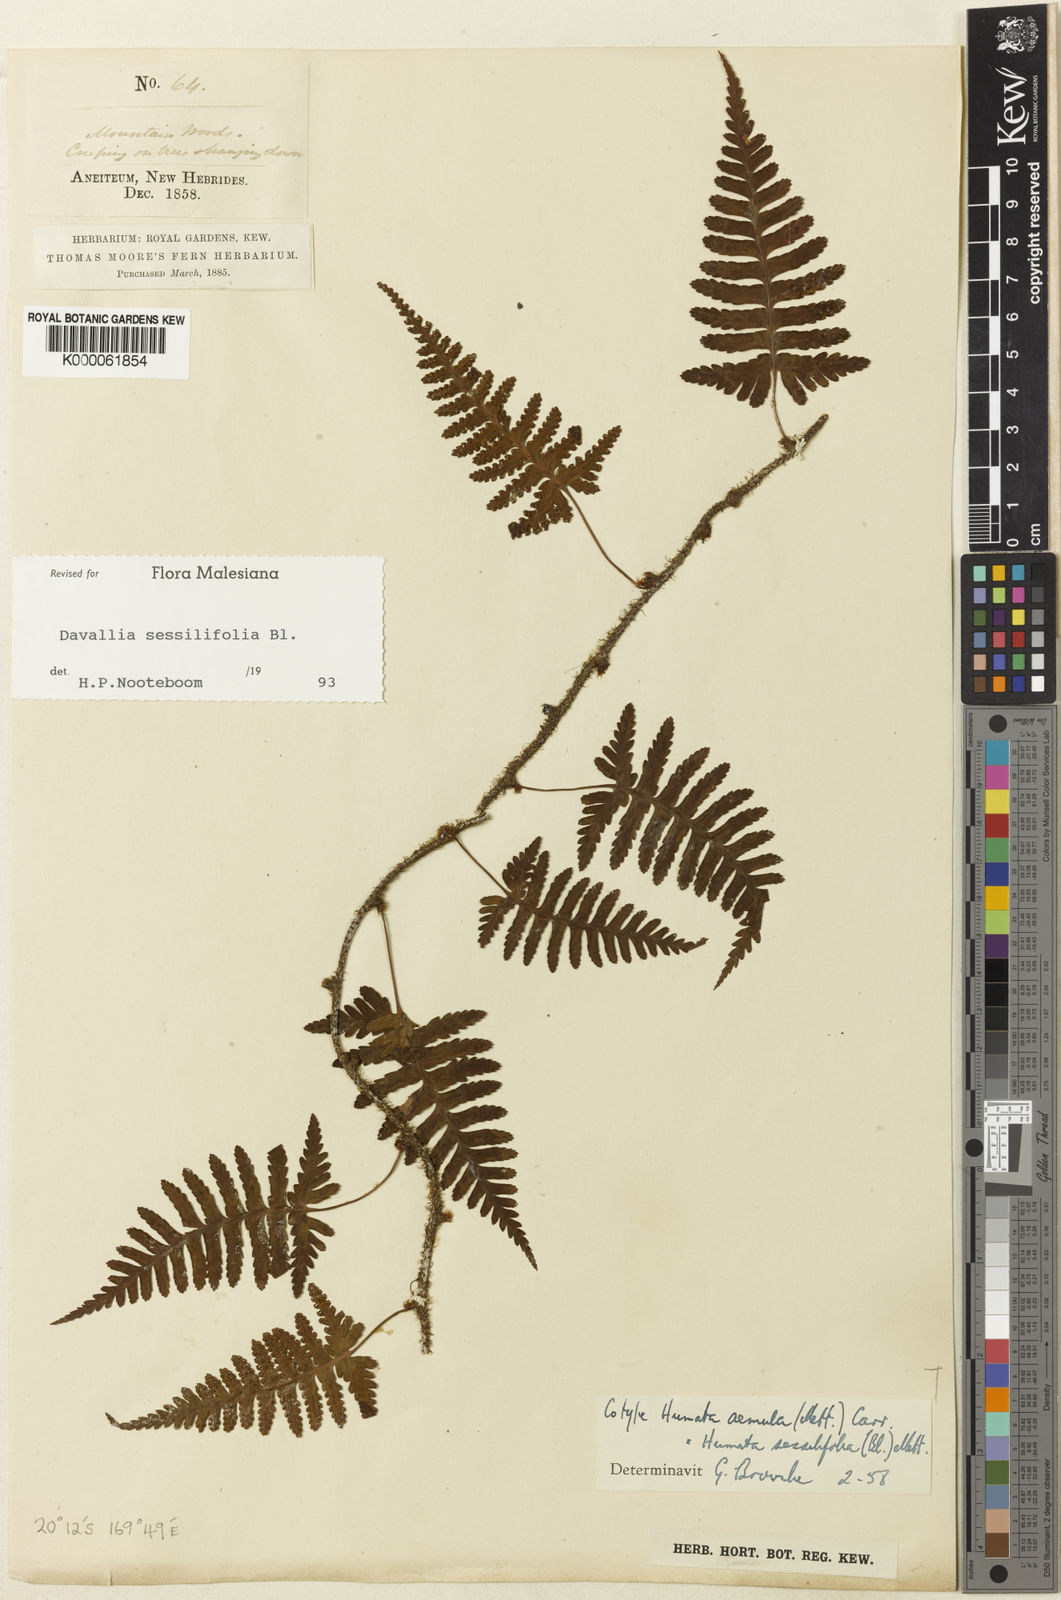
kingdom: Plantae
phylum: Tracheophyta
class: Polypodiopsida
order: Polypodiales
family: Davalliaceae
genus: Davallia
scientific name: Davallia sessilifolia
